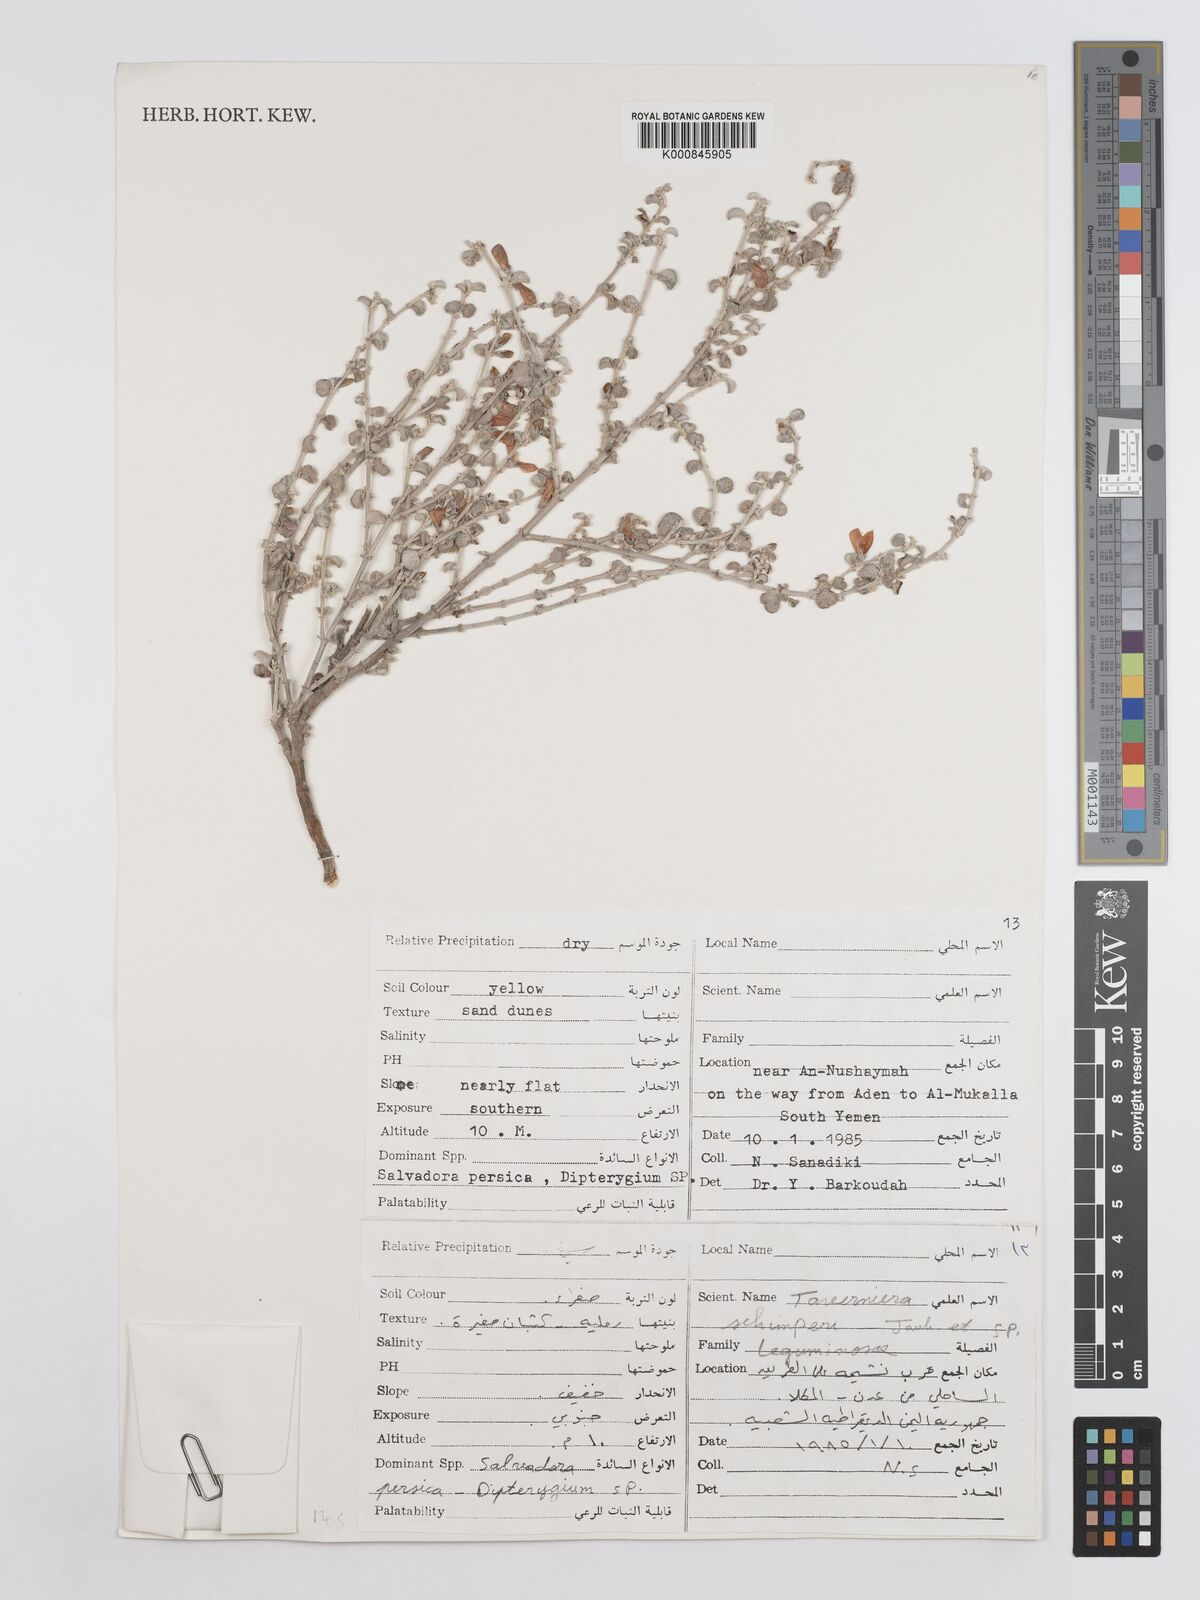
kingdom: Plantae
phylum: Tracheophyta
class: Magnoliopsida
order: Fabales
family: Fabaceae
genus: Taverniera
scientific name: Taverniera schimperi
